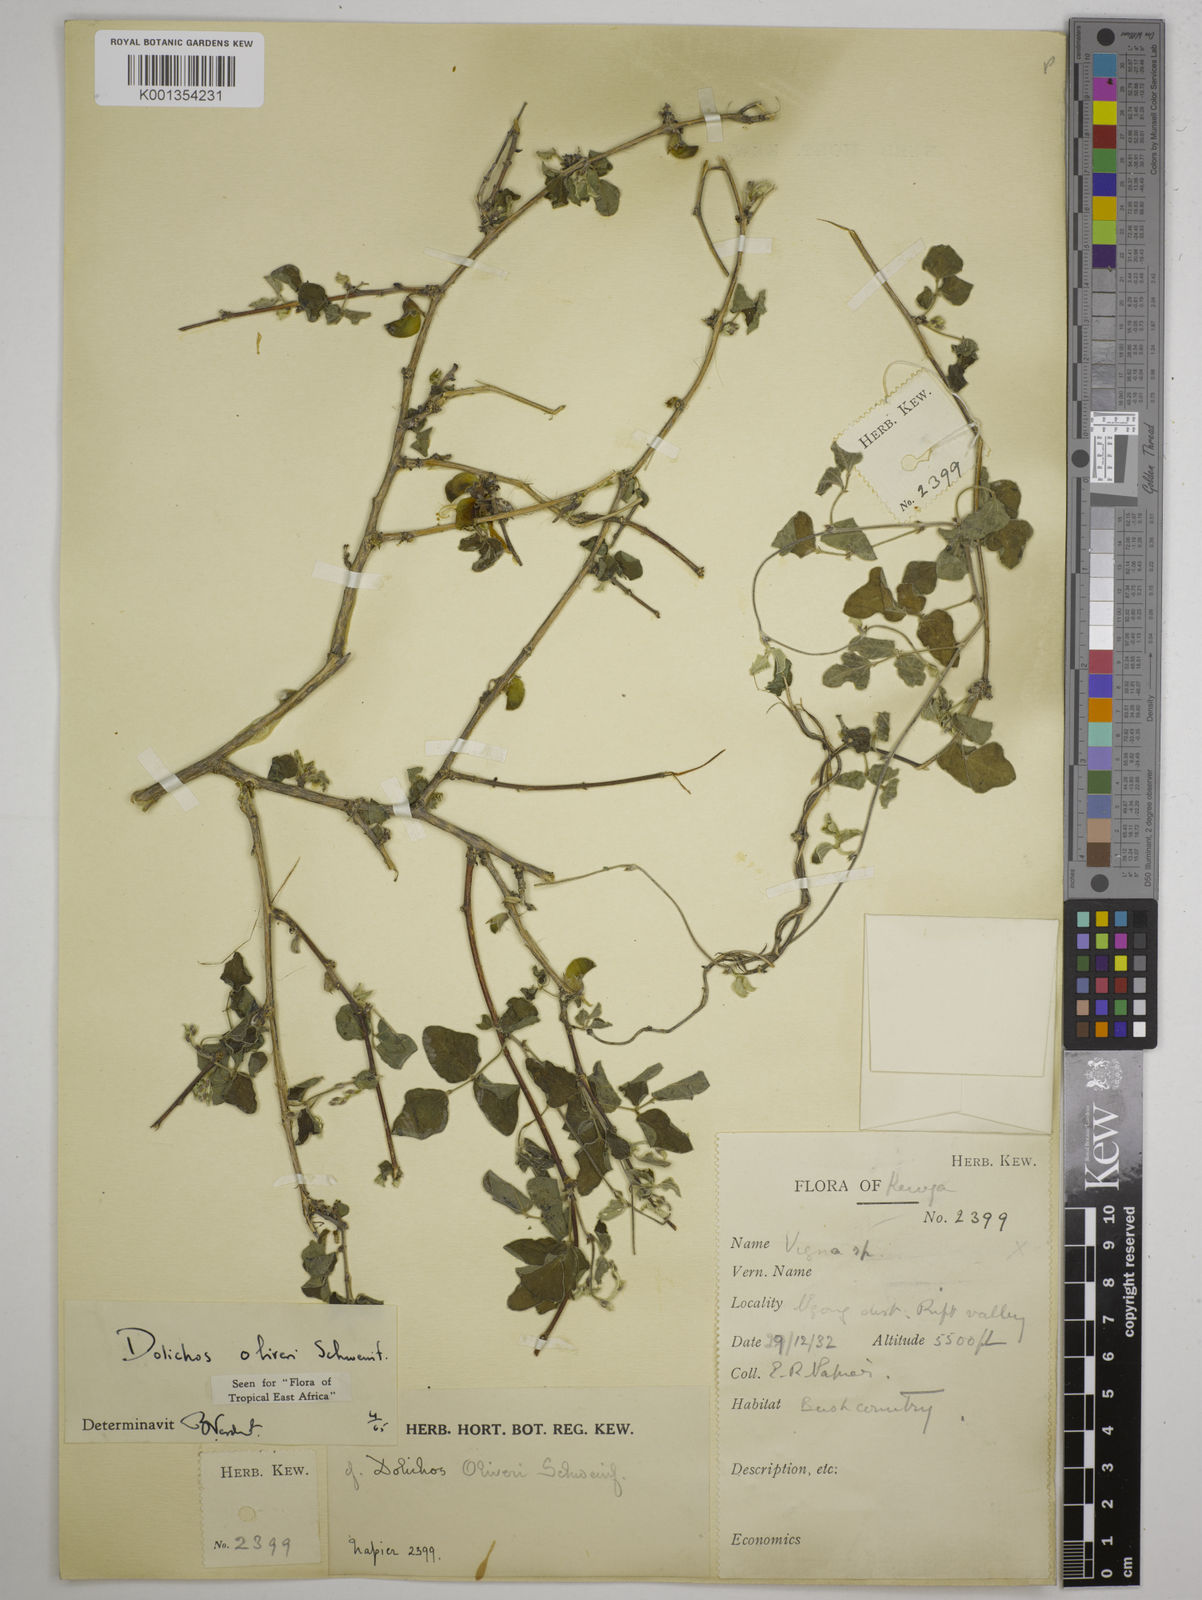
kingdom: Plantae
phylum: Tracheophyta
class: Magnoliopsida
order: Fabales
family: Fabaceae
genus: Dolichos
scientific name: Dolichos oliveri
